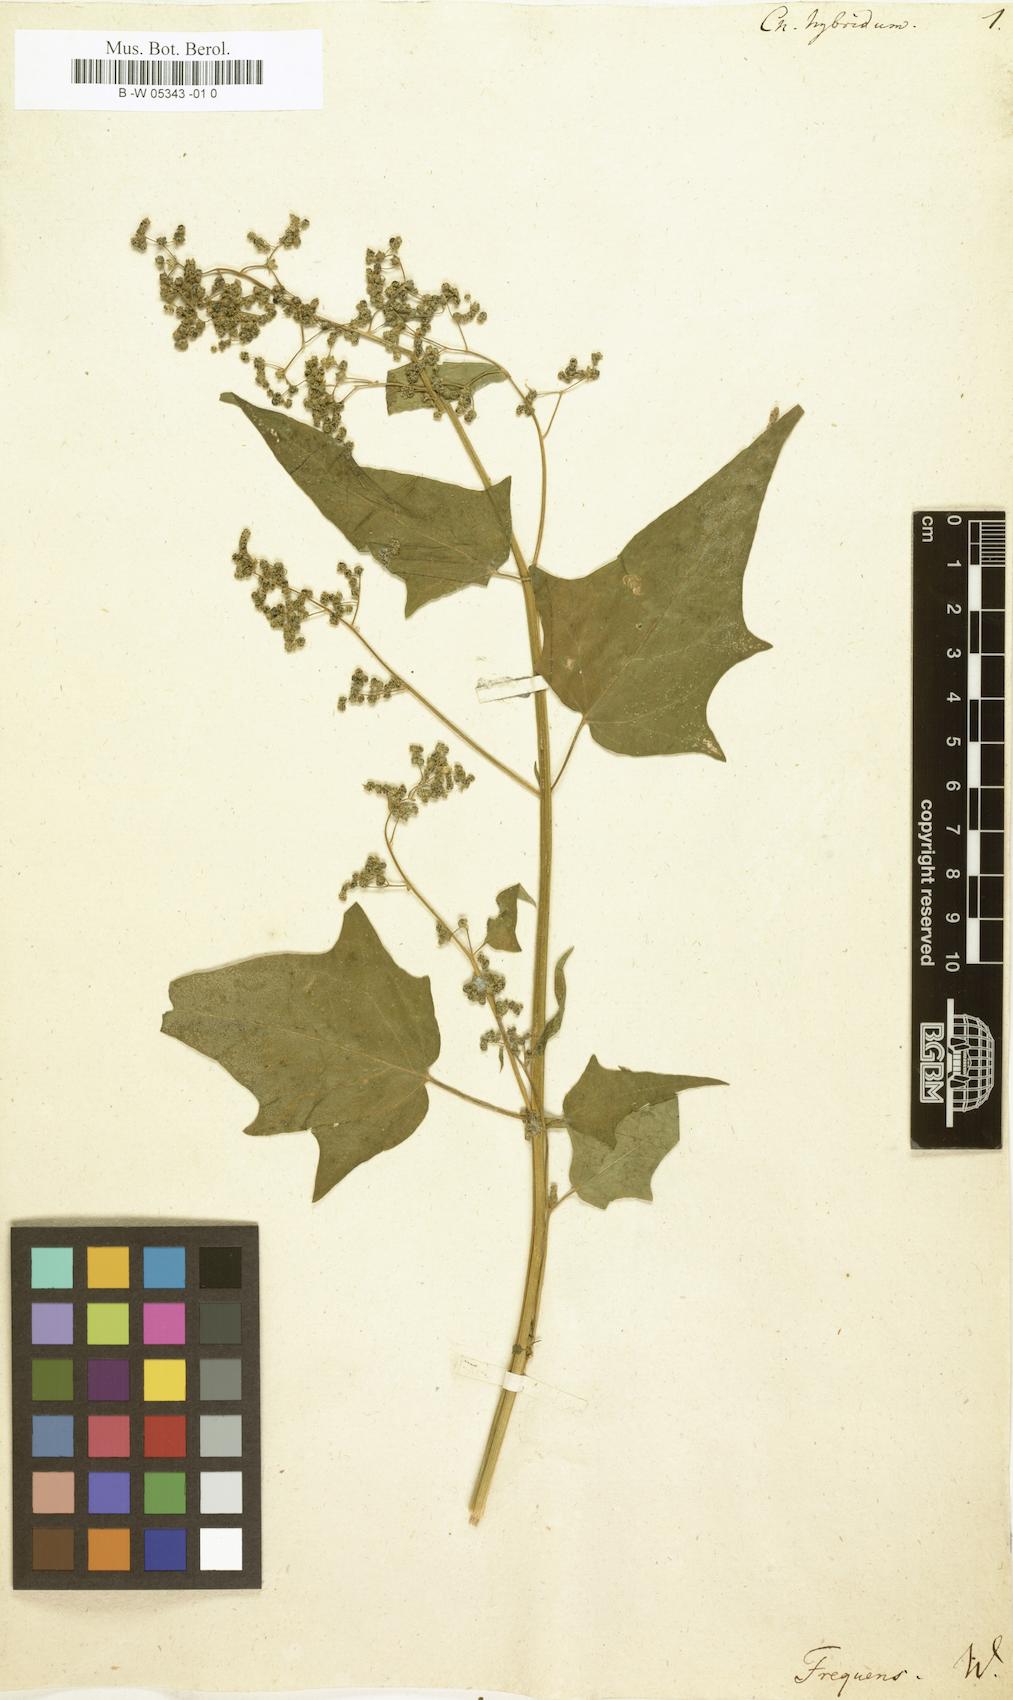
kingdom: Plantae
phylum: Tracheophyta
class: Magnoliopsida
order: Caryophyllales
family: Amaranthaceae
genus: Chenopodiastrum
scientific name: Chenopodiastrum hybridum
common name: Mapleleaf goosefoot
